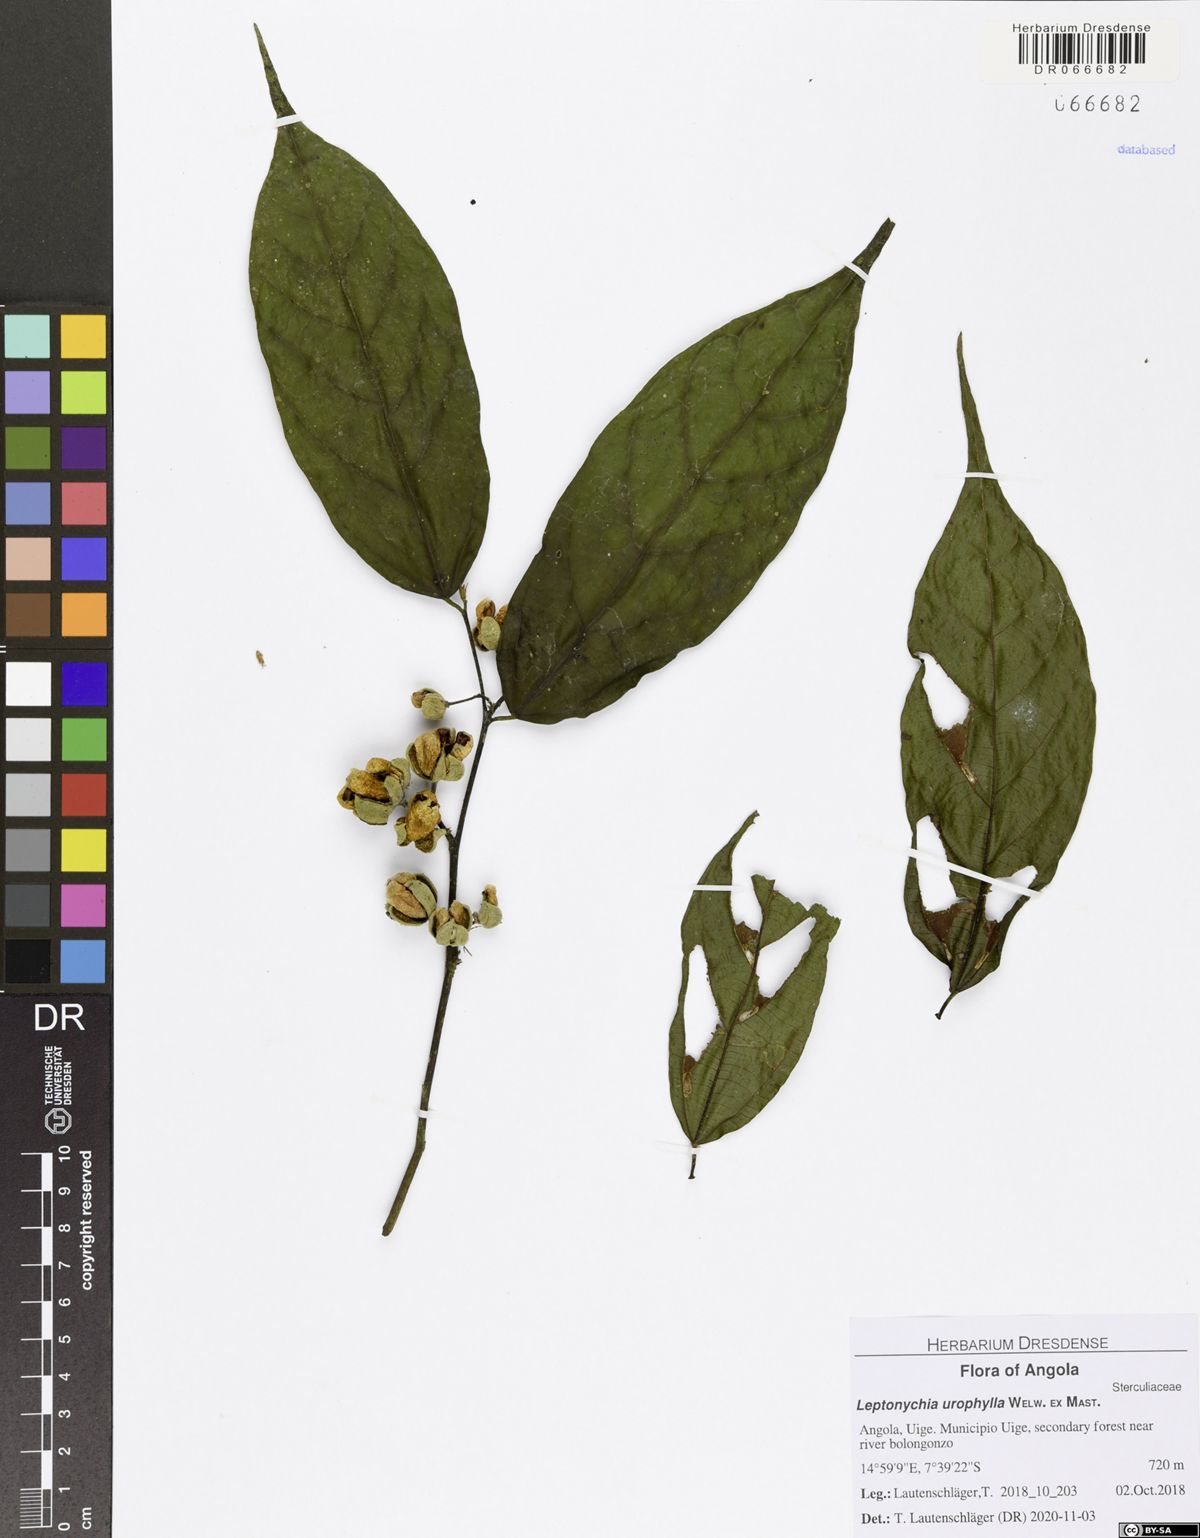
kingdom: Plantae
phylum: Tracheophyta
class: Magnoliopsida
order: Malvales
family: Malvaceae
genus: Leptonychia
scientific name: Leptonychia urophylla
